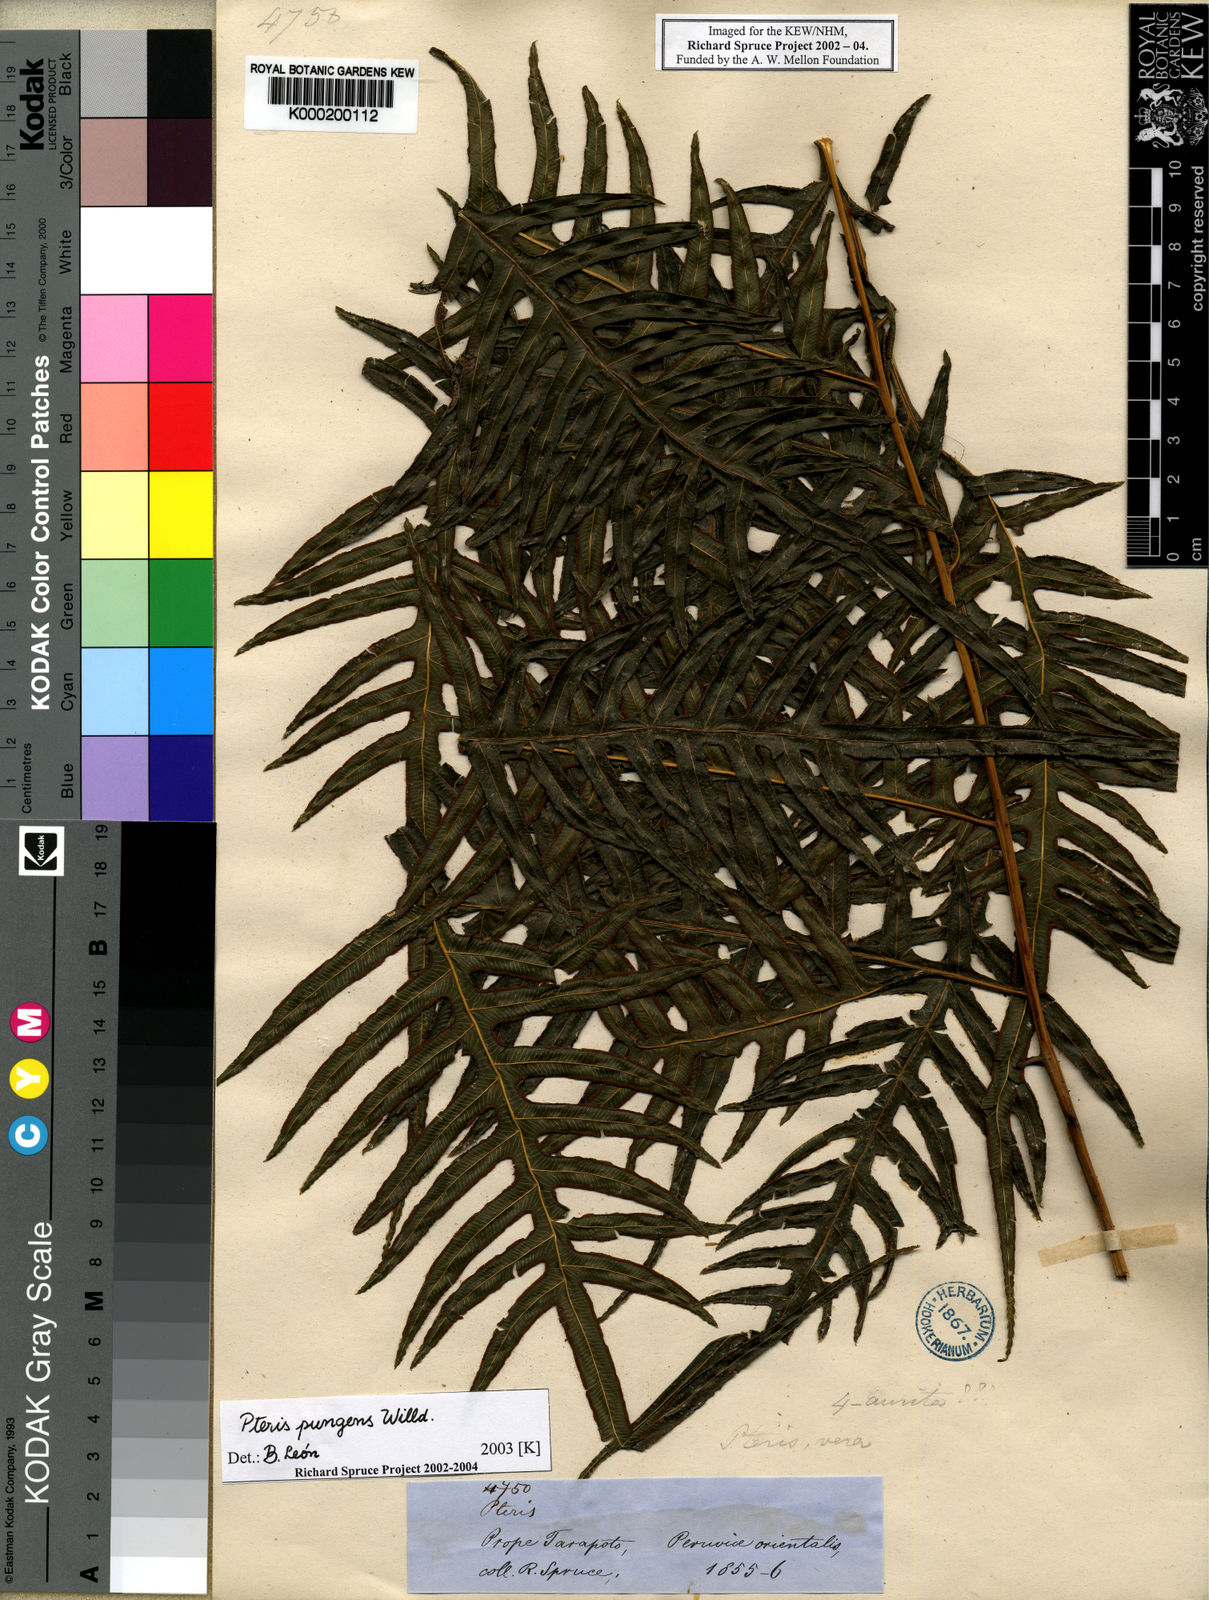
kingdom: Plantae
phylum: Tracheophyta
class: Polypodiopsida
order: Polypodiales
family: Pteridaceae
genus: Pteris
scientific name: Pteris pungens
